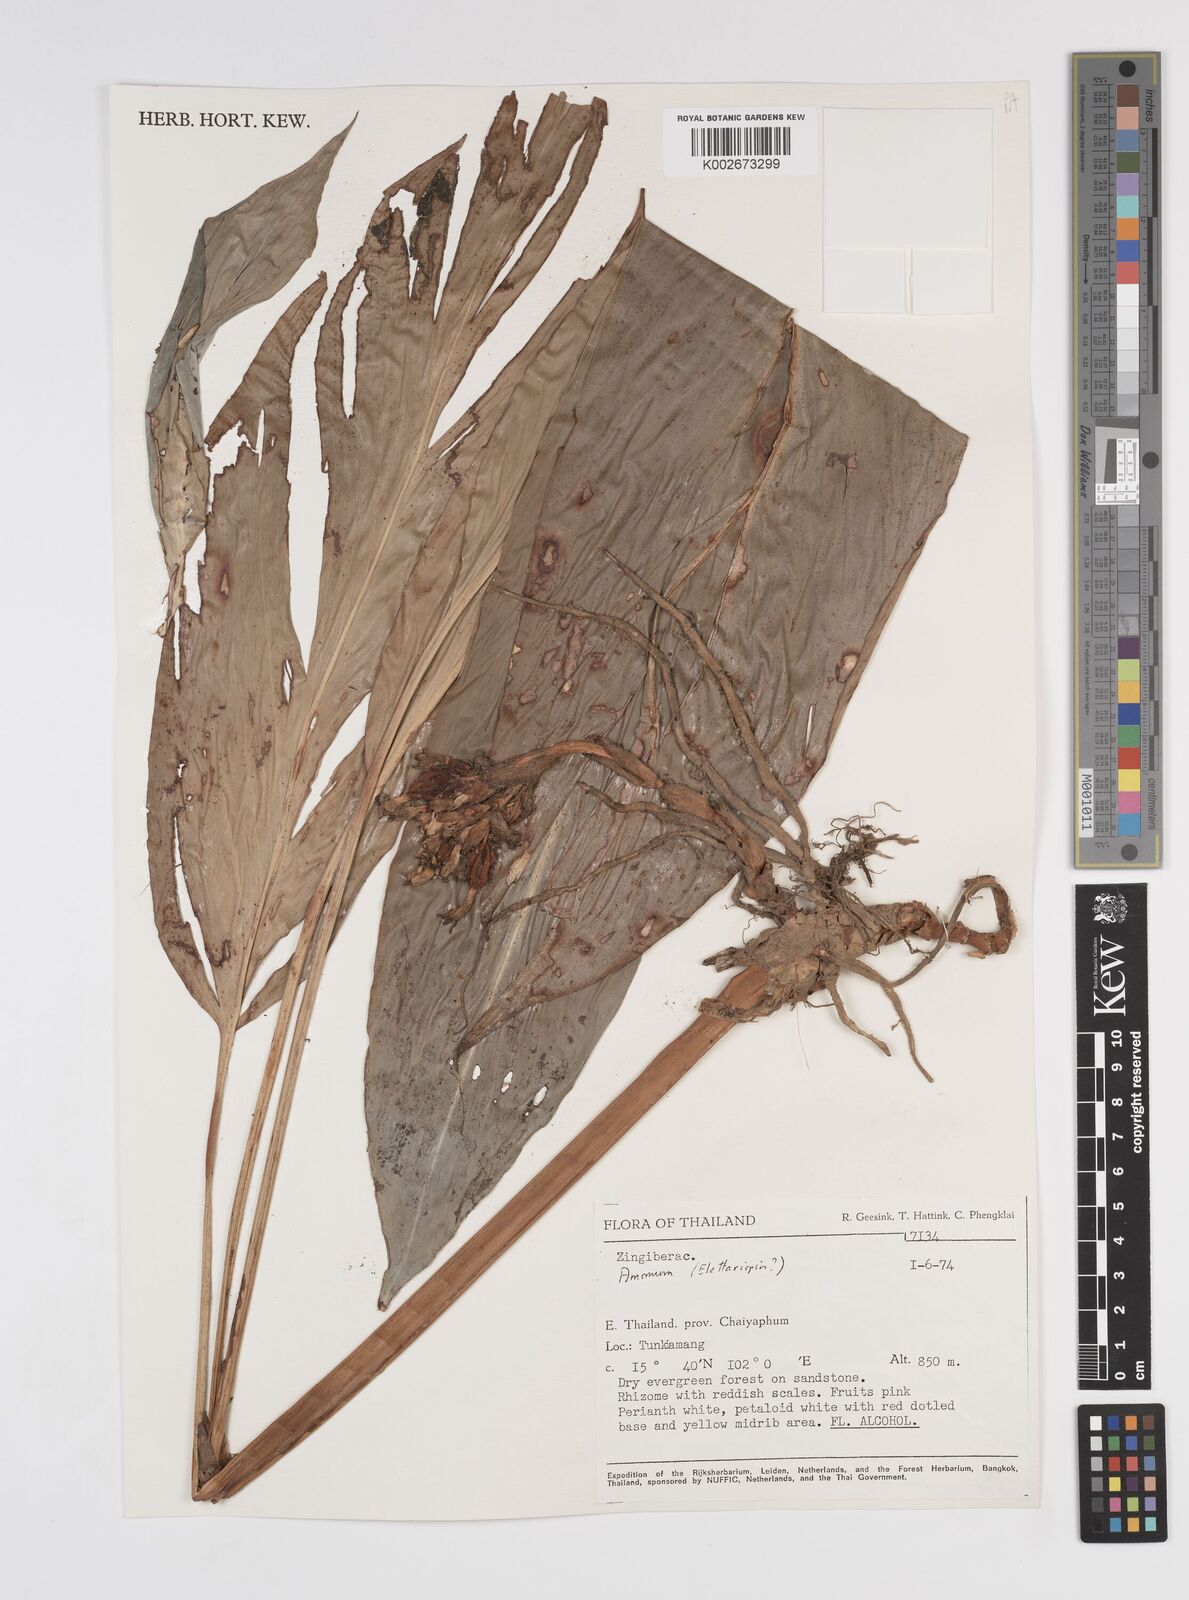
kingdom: Plantae
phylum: Tracheophyta
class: Liliopsida
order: Zingiberales
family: Zingiberaceae
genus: Amomum
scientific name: Amomum
